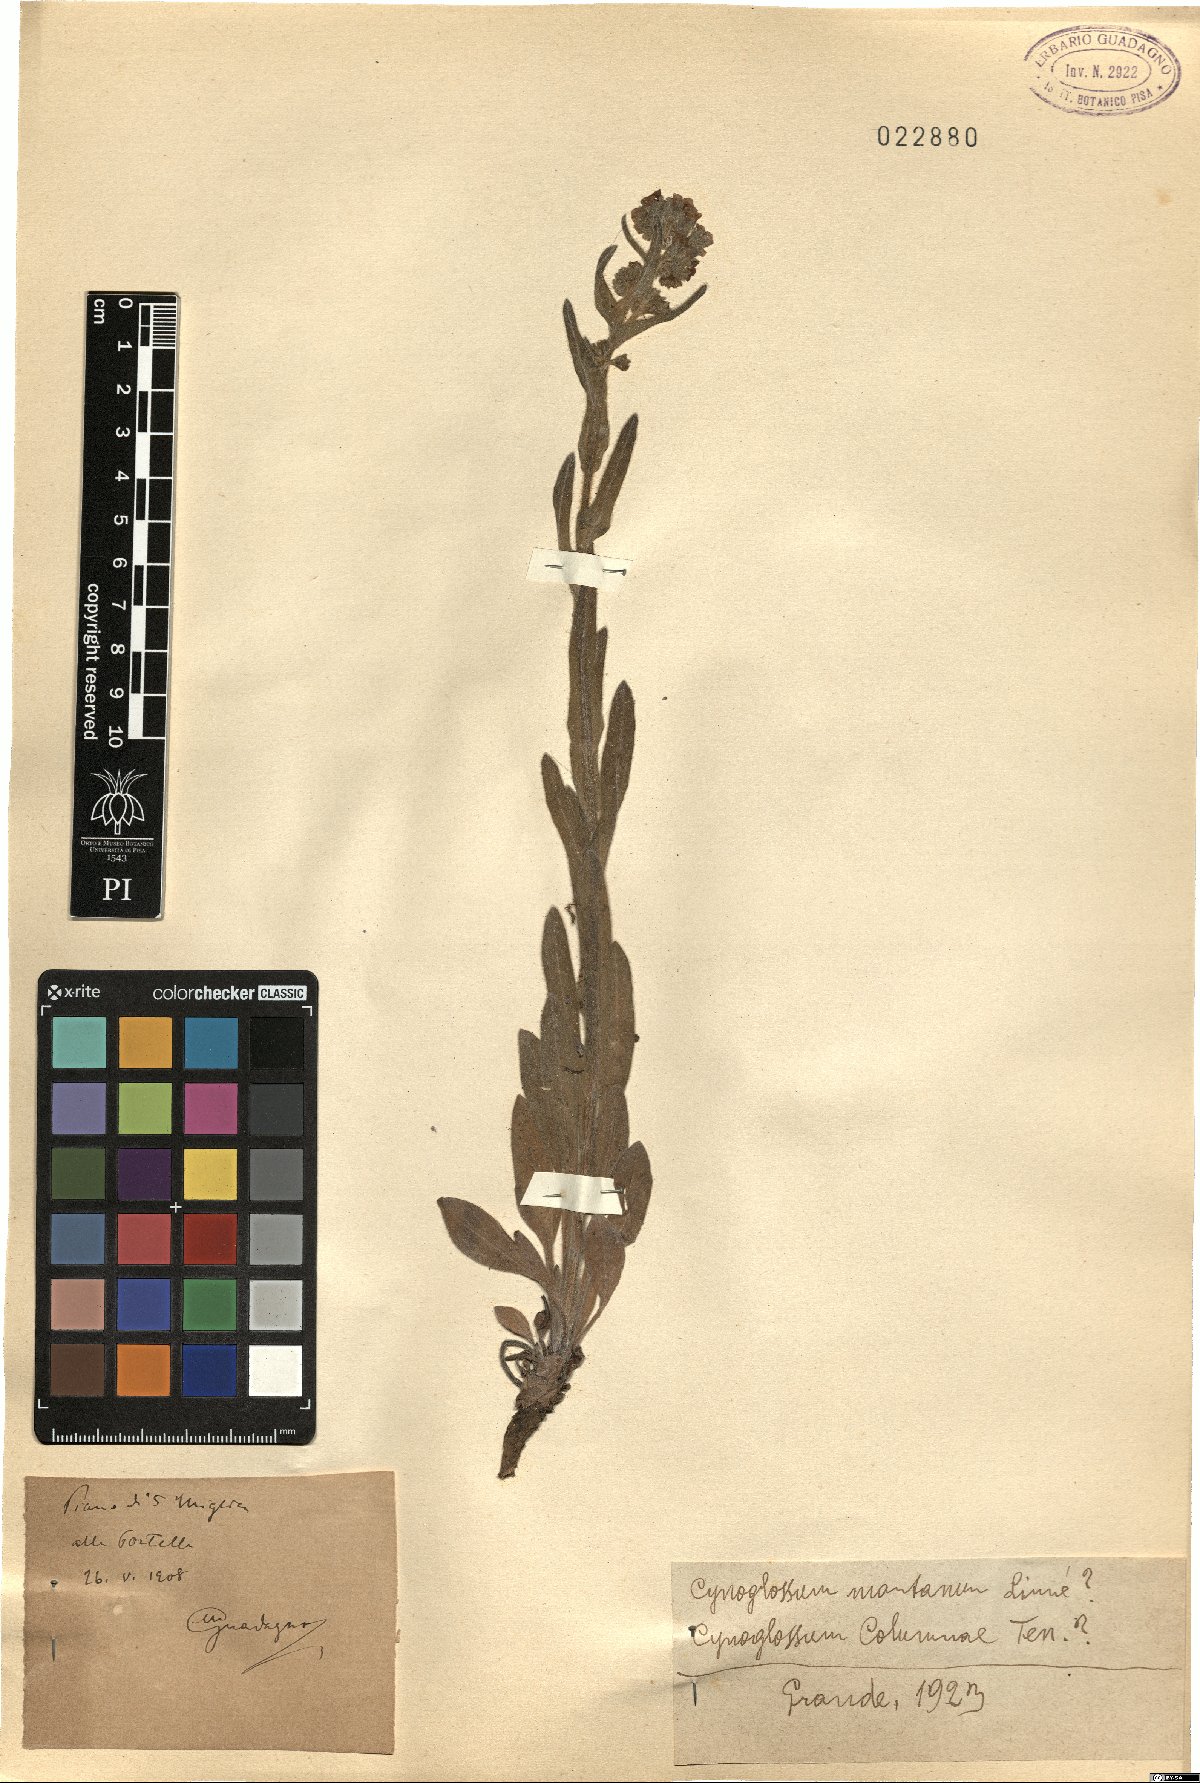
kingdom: Plantae
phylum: Tracheophyta
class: Magnoliopsida
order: Boraginales
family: Boraginaceae
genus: Cynoglossum
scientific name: Cynoglossum montanum
